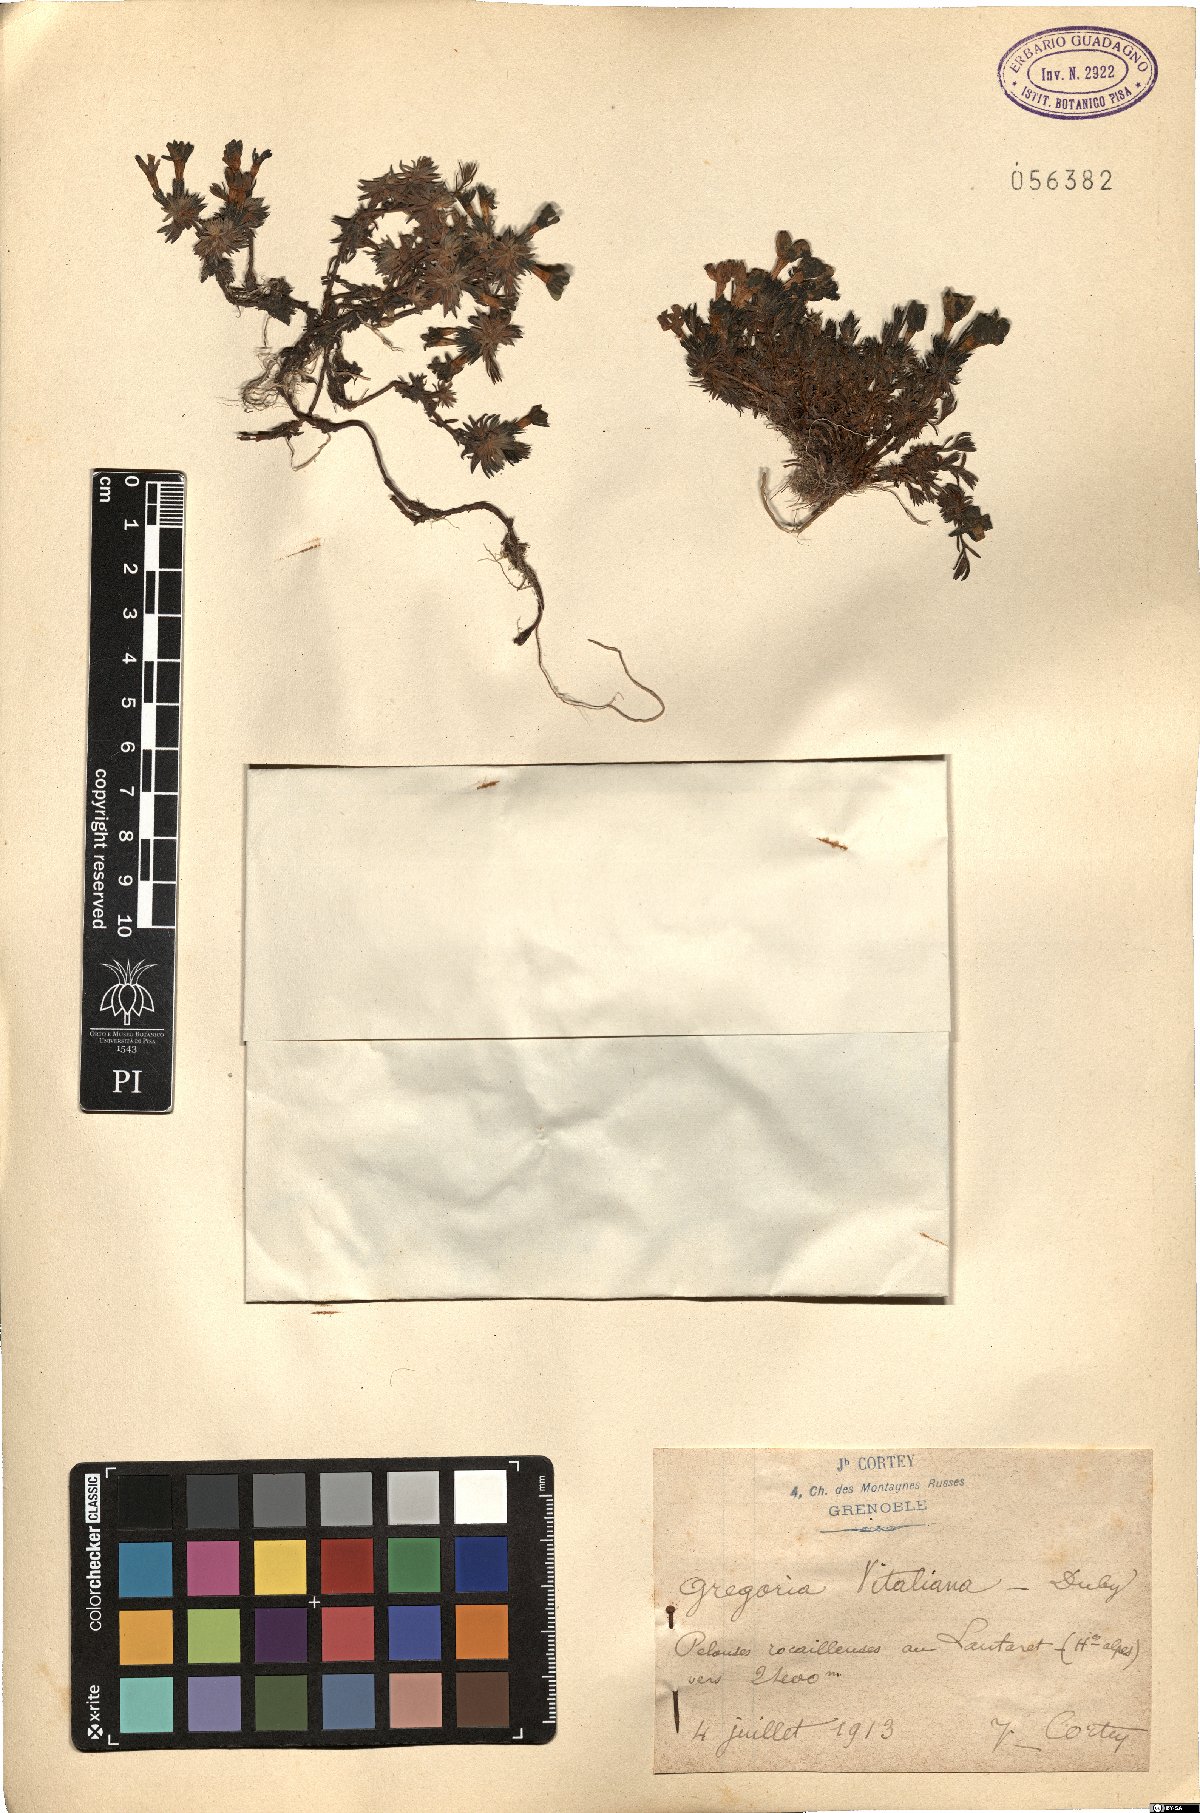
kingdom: Plantae
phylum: Tracheophyta
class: Magnoliopsida
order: Ericales
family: Primulaceae
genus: Androsace
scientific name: Androsace vitaliana
